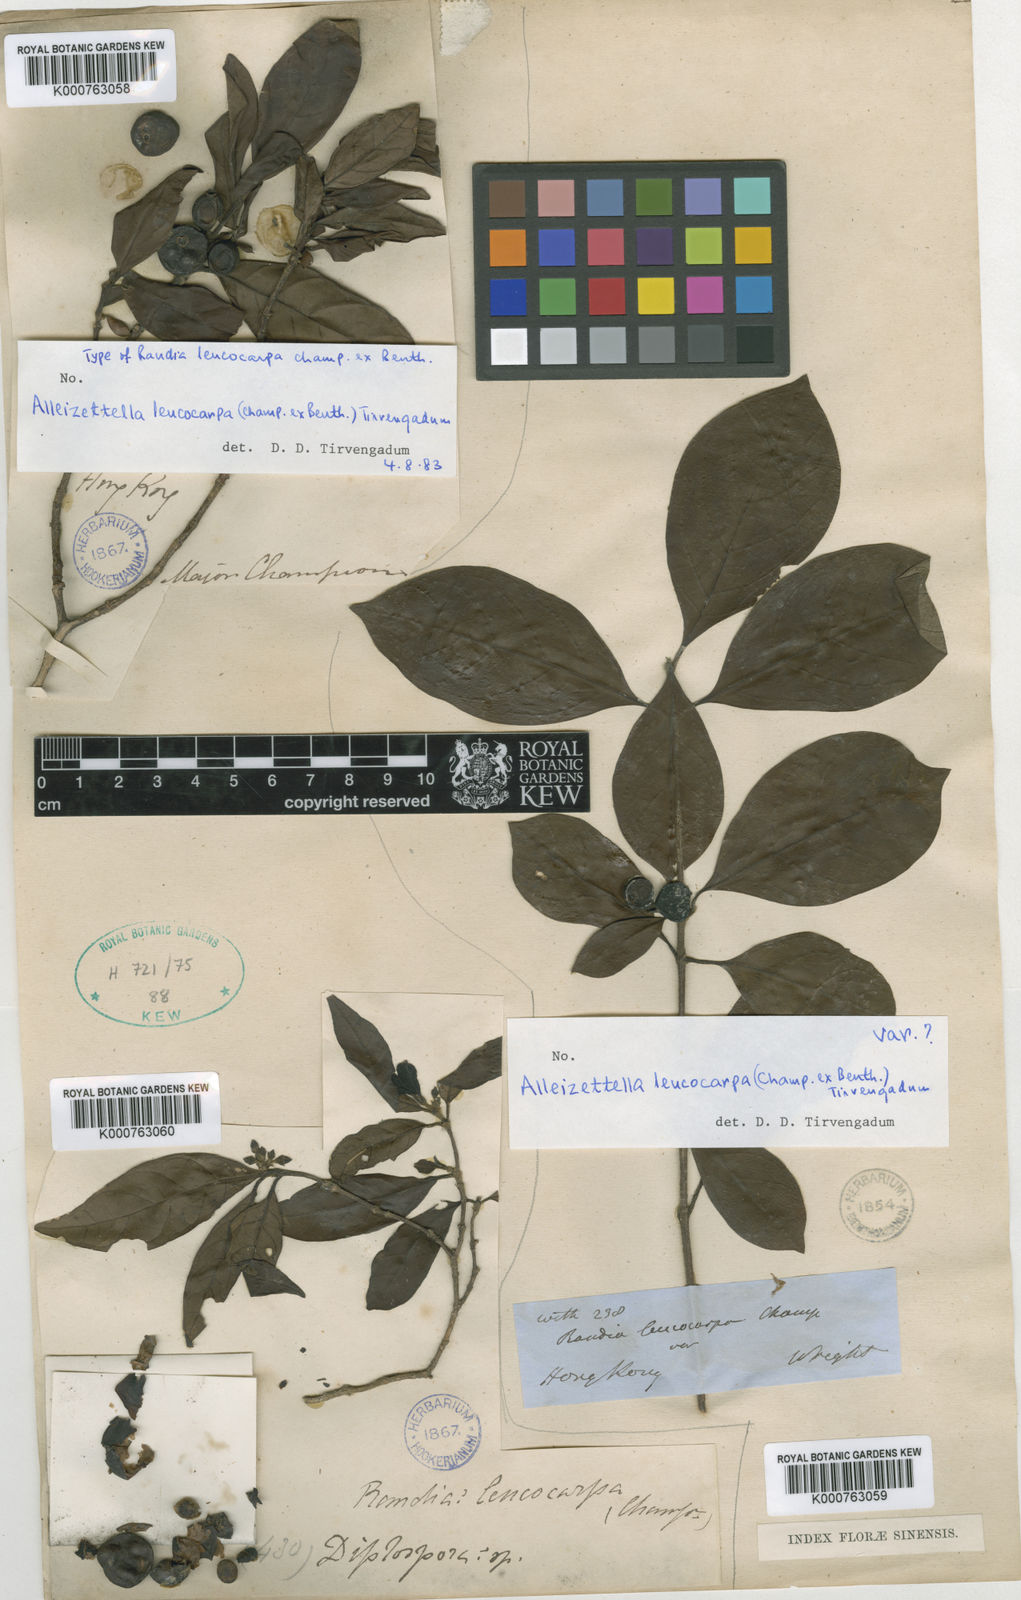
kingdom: Plantae
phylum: Tracheophyta
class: Magnoliopsida
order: Gentianales
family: Rubiaceae
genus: Alleizettella
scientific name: Alleizettella leucocarpa
